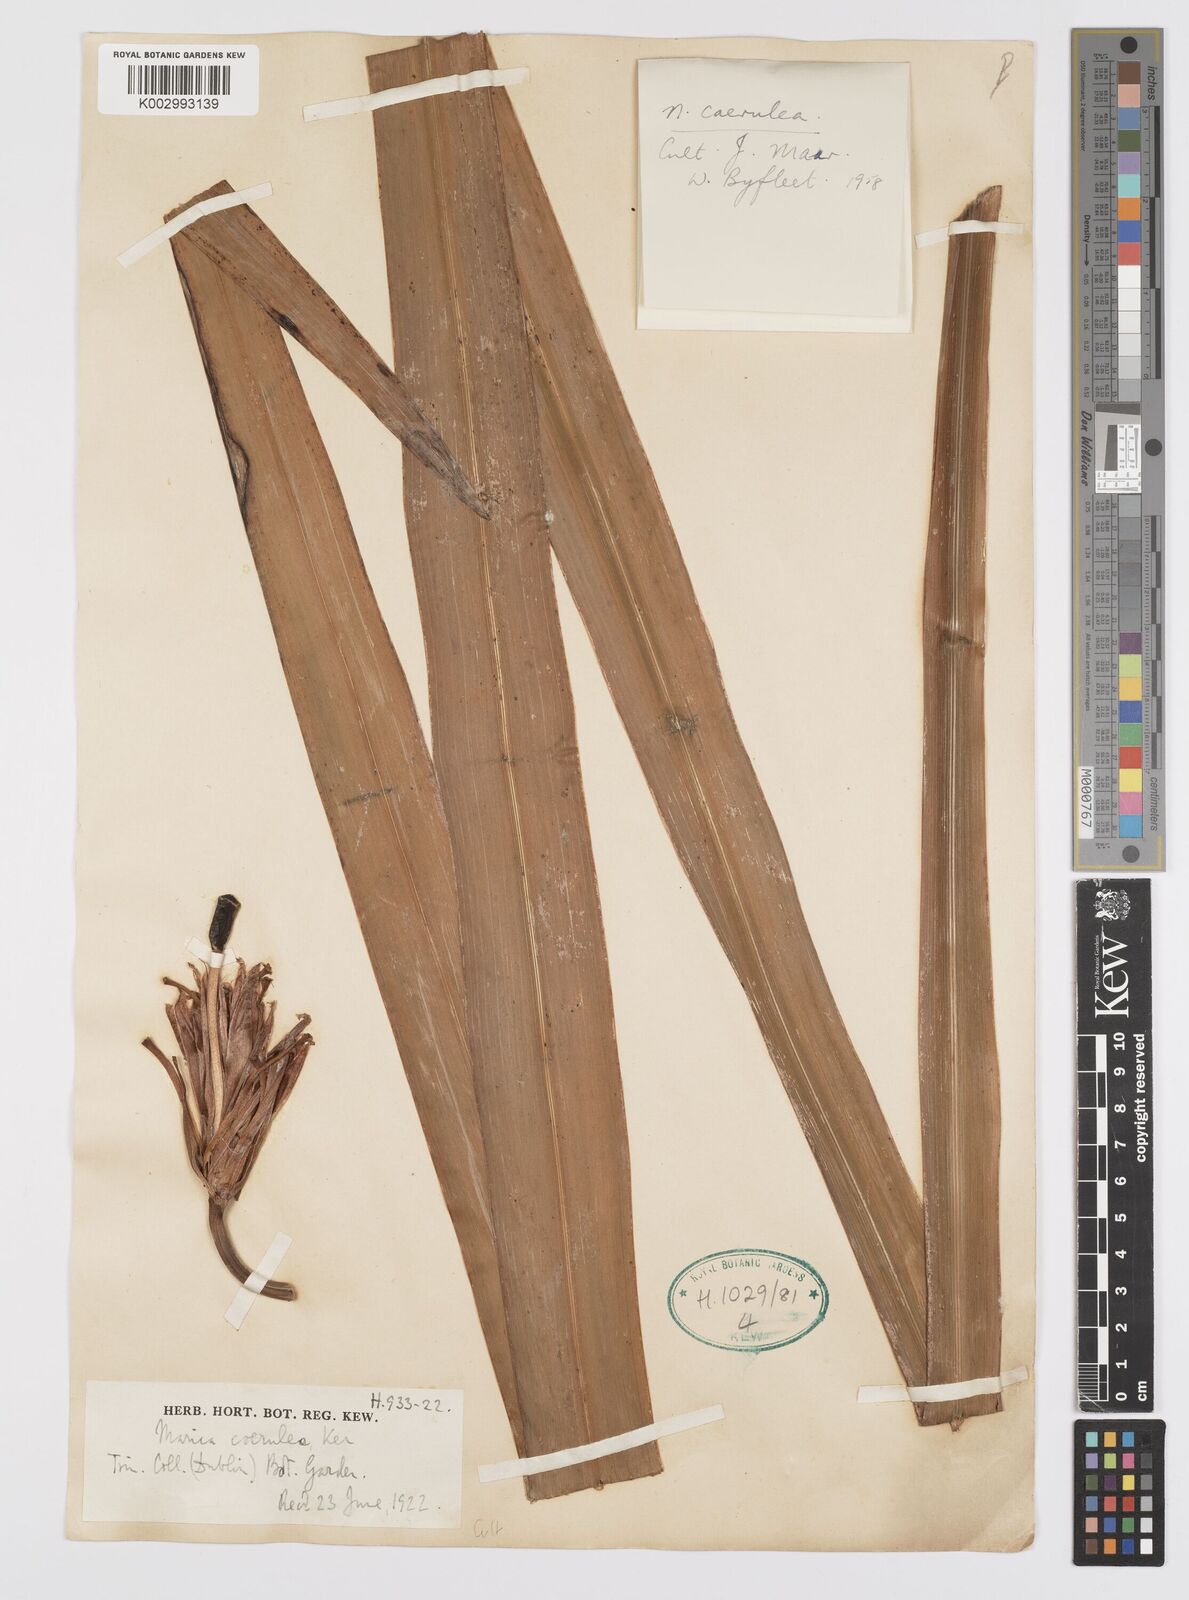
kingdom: Plantae
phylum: Tracheophyta
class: Liliopsida
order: Asparagales
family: Iridaceae
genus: Trimezia
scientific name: Trimezia coerulea
